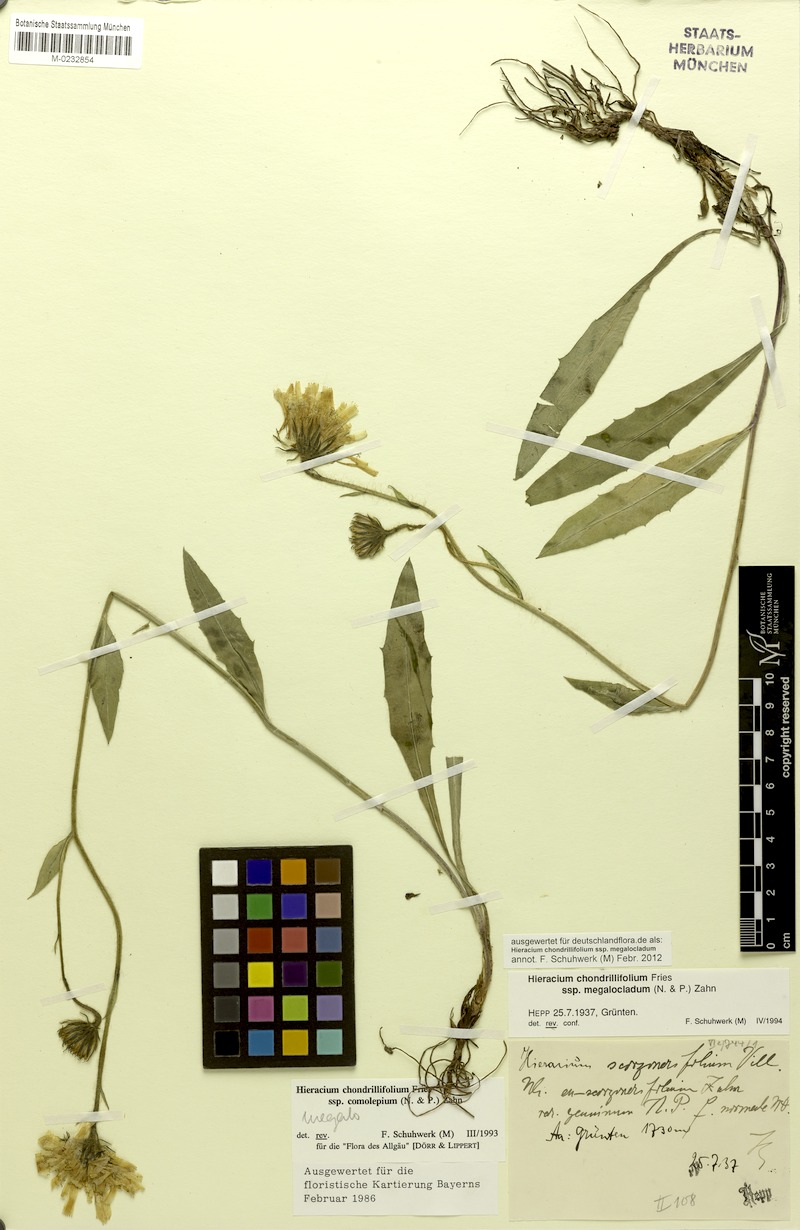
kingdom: Plantae
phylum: Tracheophyta
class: Magnoliopsida
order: Asterales
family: Asteraceae
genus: Hieracium
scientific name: Hieracium subspeciosum
